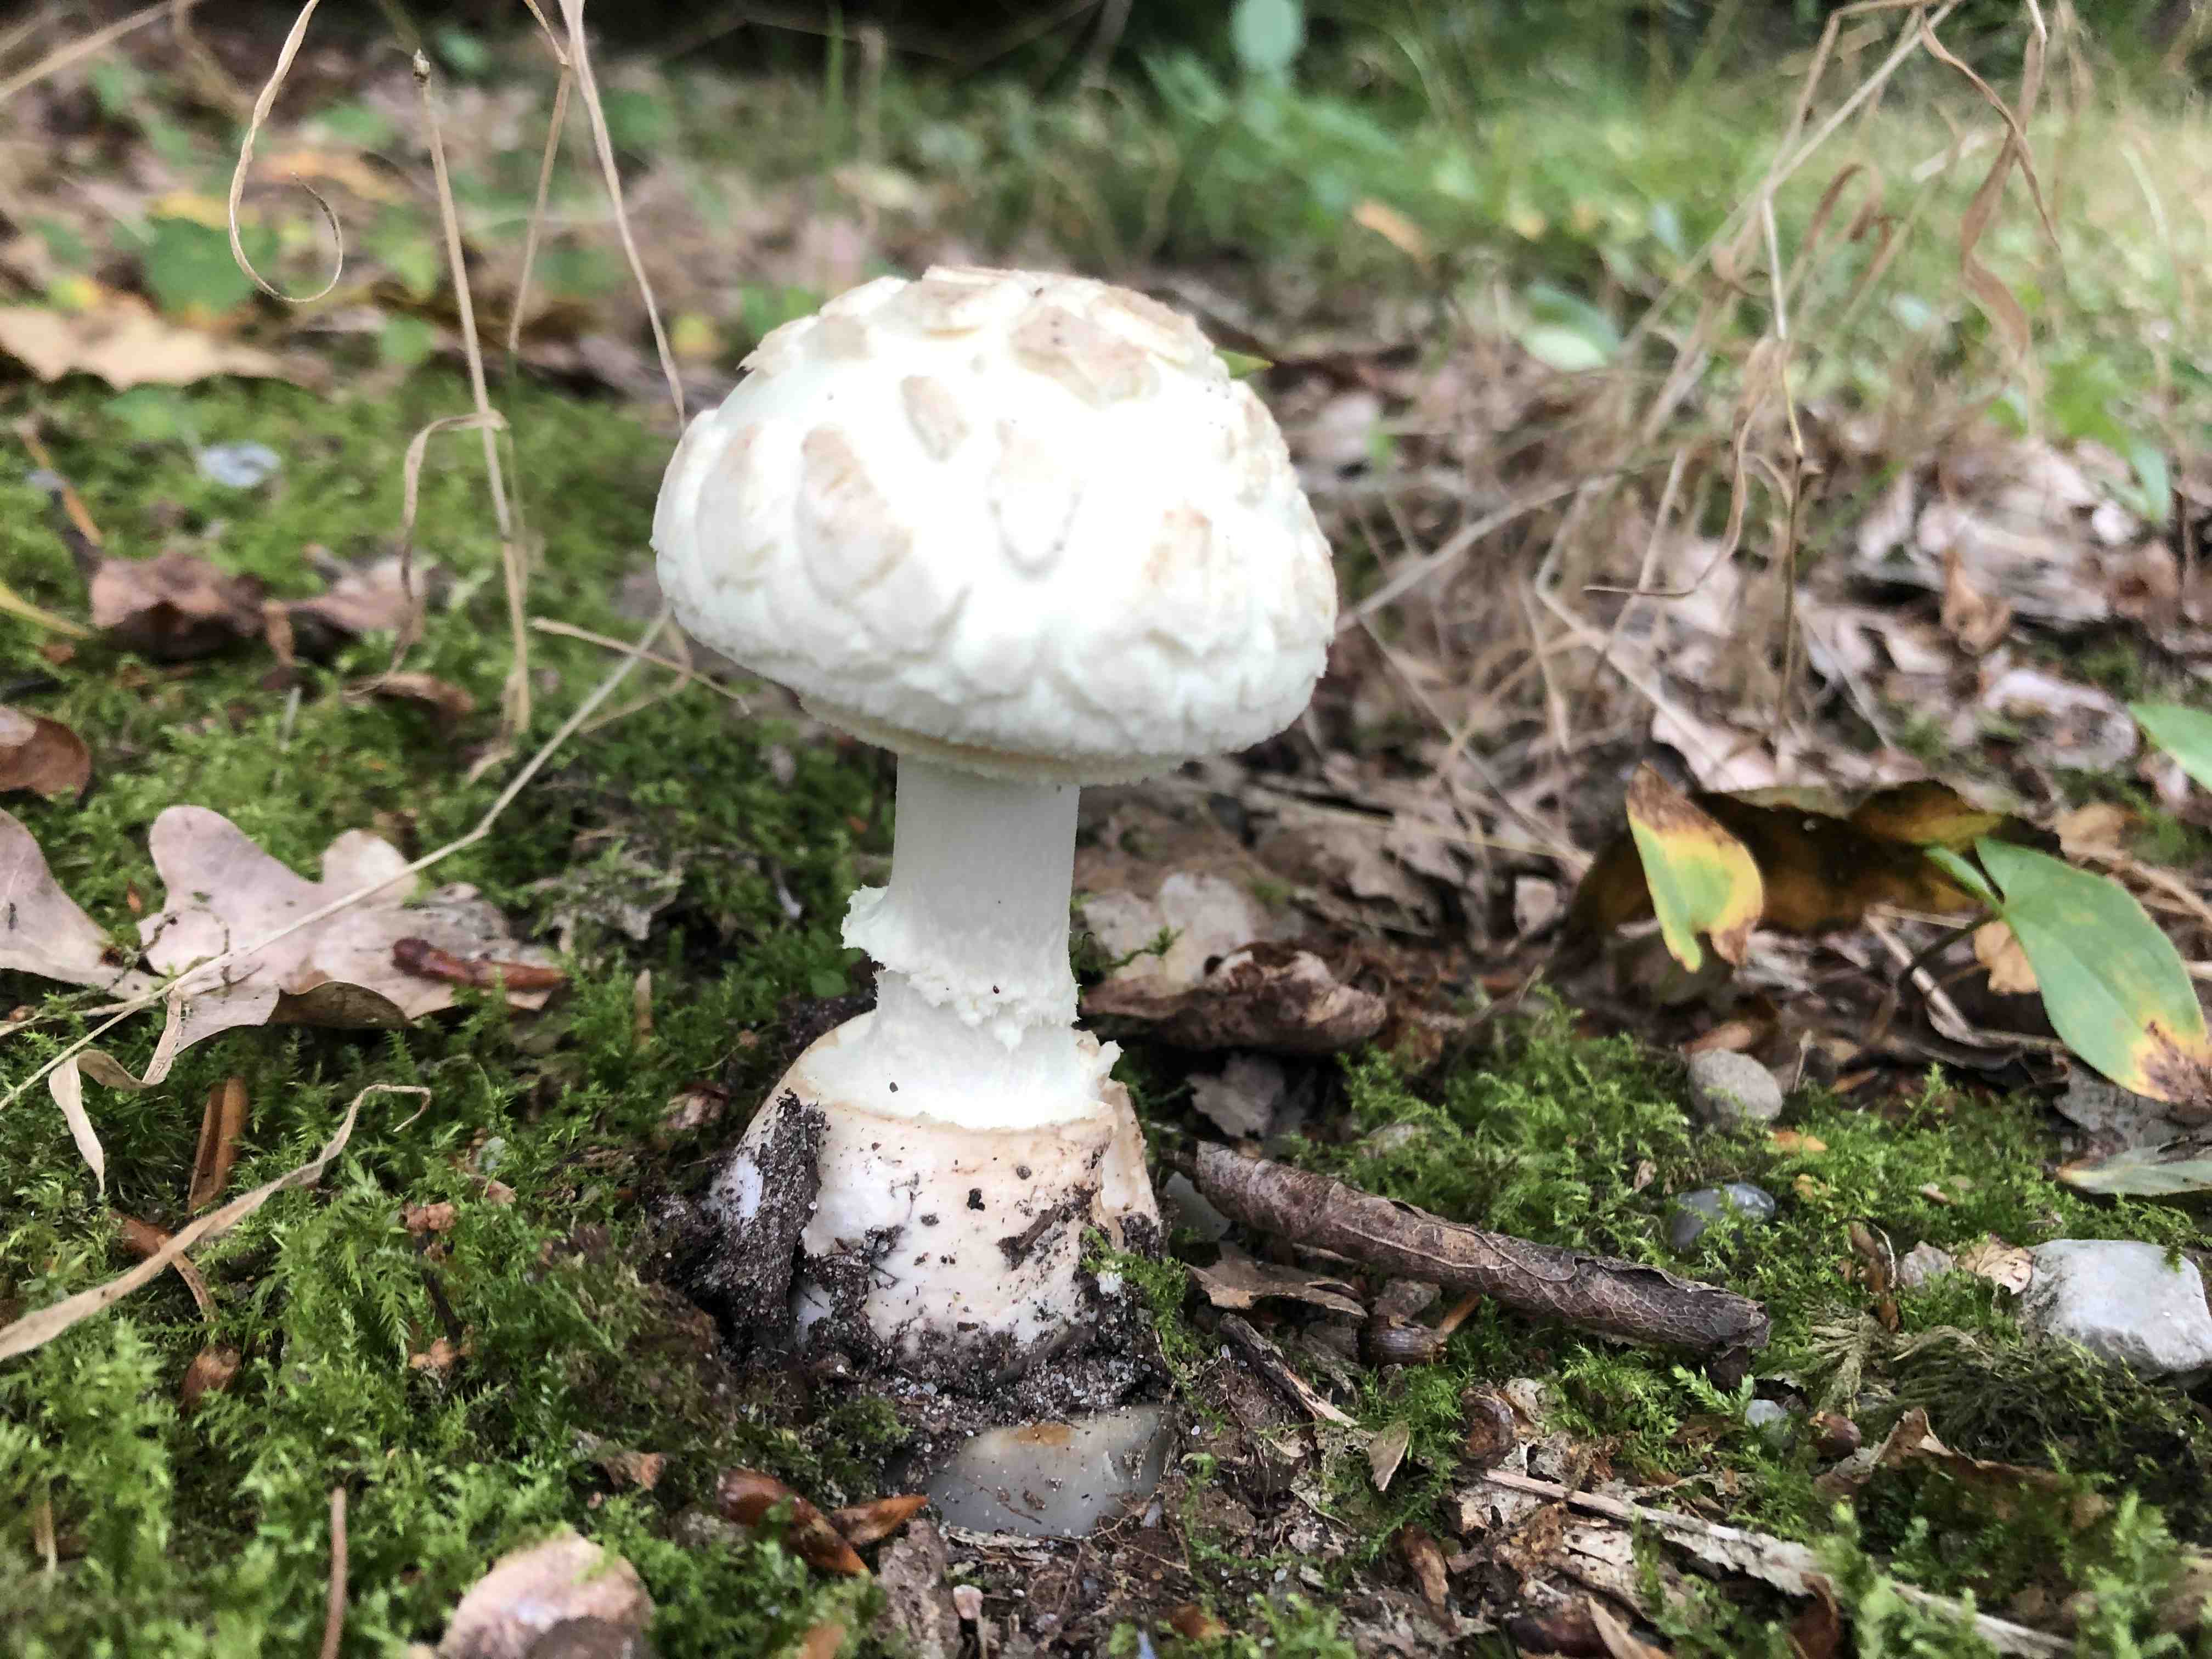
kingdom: Fungi
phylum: Basidiomycota
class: Agaricomycetes
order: Agaricales
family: Amanitaceae
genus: Amanita
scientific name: Amanita citrina
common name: kugleknoldet fluesvamp
